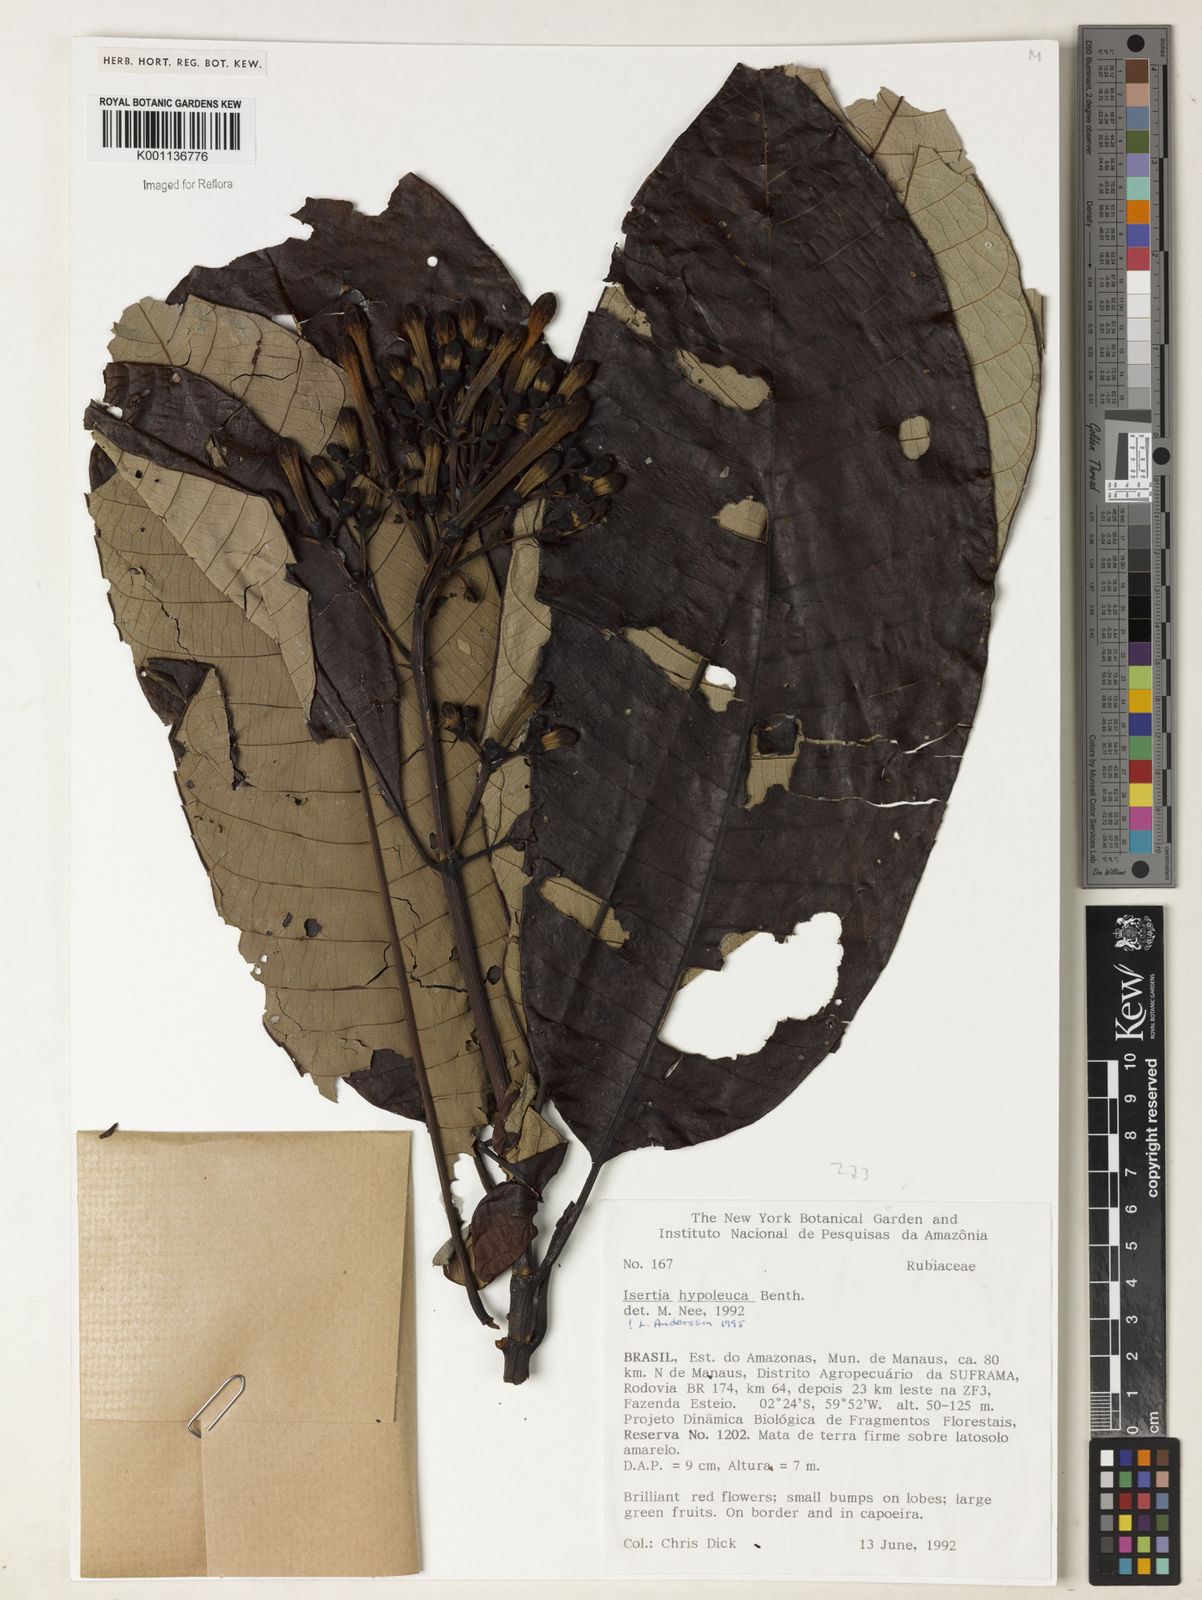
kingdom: Plantae
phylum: Tracheophyta
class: Magnoliopsida
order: Gentianales
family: Rubiaceae
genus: Isertia
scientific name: Isertia hypoleuca
